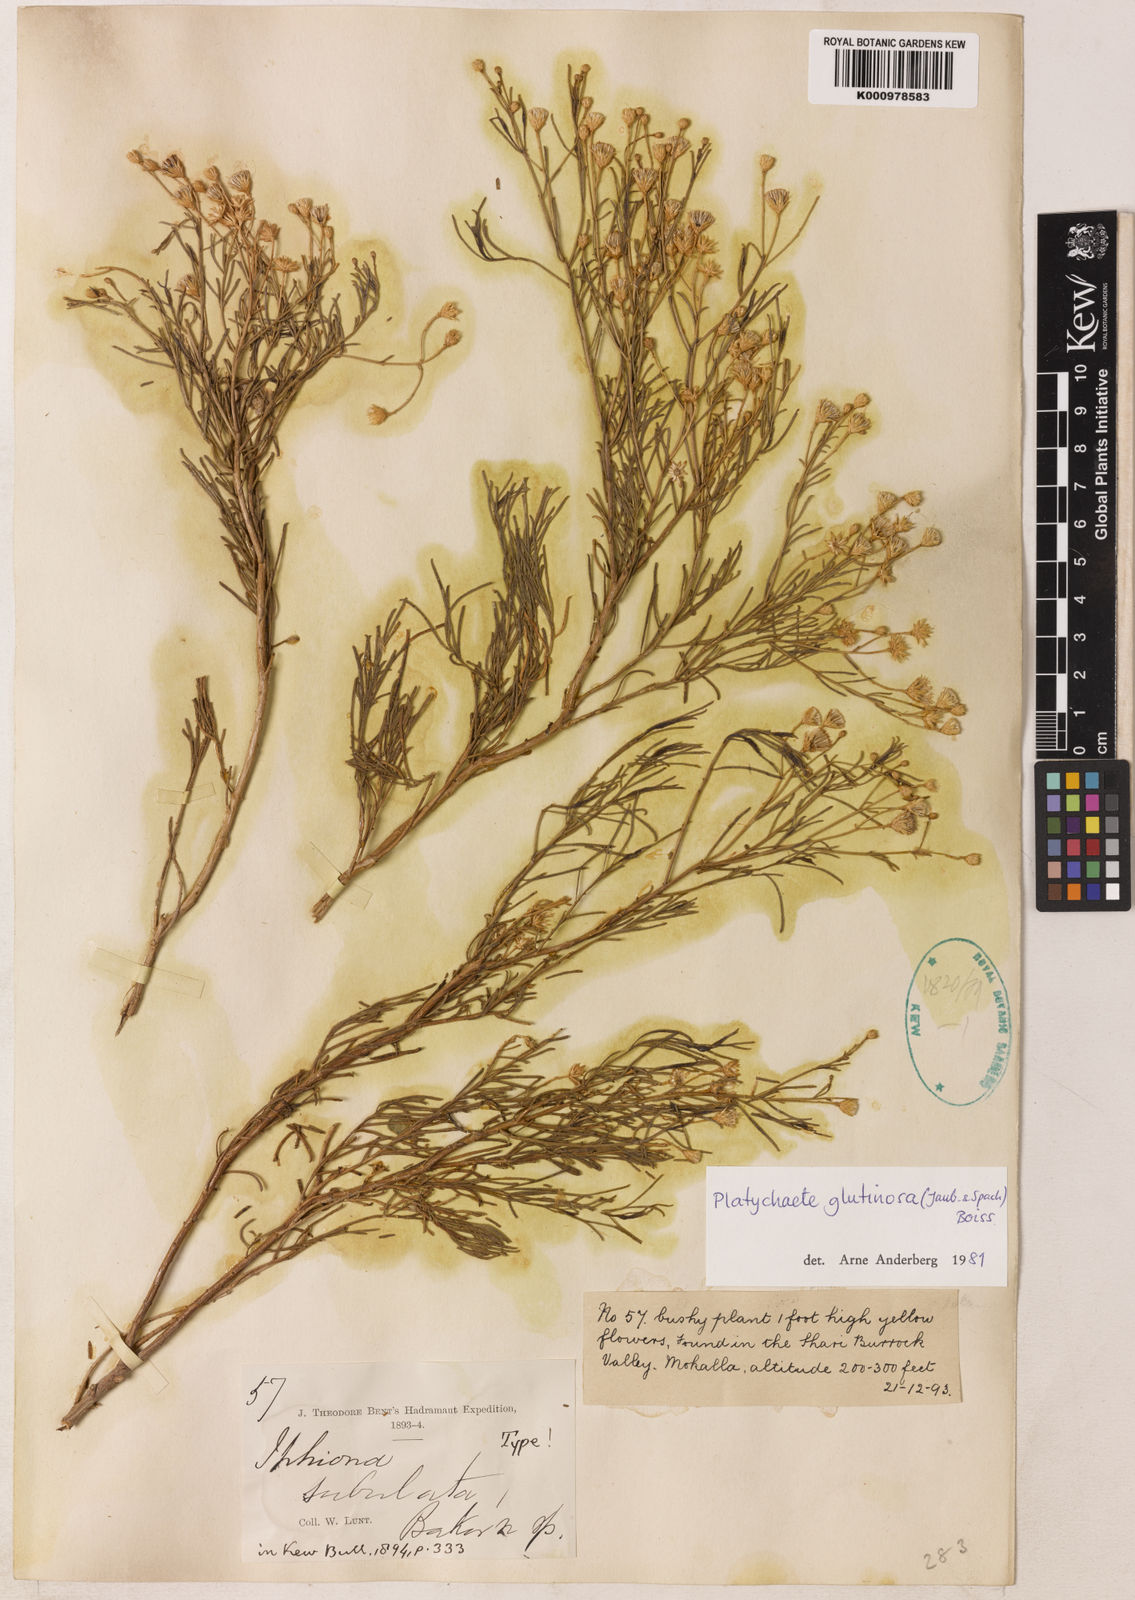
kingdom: Plantae
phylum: Tracheophyta
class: Magnoliopsida
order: Asterales
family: Asteraceae
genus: Pulicaria
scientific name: Pulicaria glutinosa
